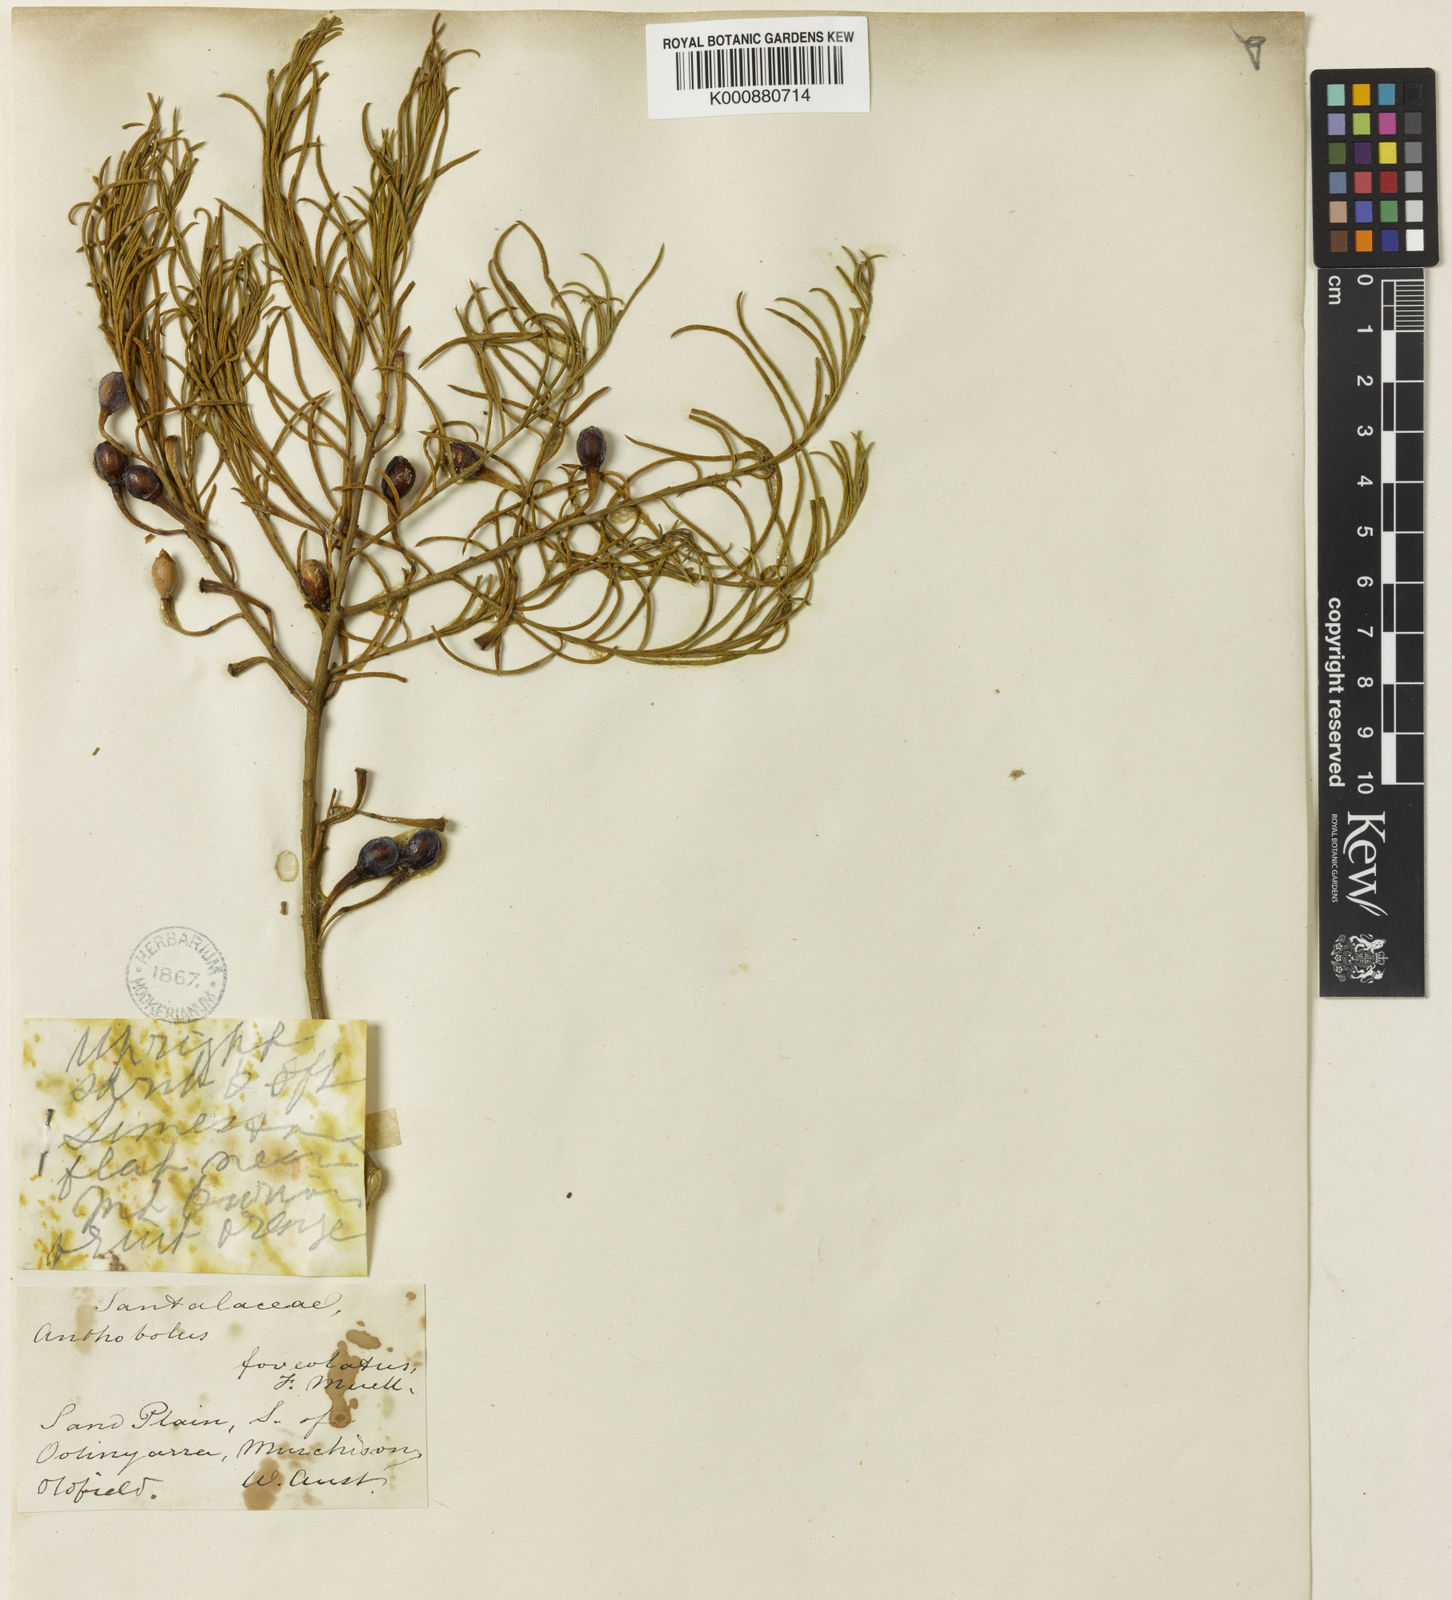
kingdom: Plantae
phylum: Tracheophyta
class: Magnoliopsida
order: Santalales
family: Opiliaceae
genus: Anthobolus
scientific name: Anthobolus foveolatus
